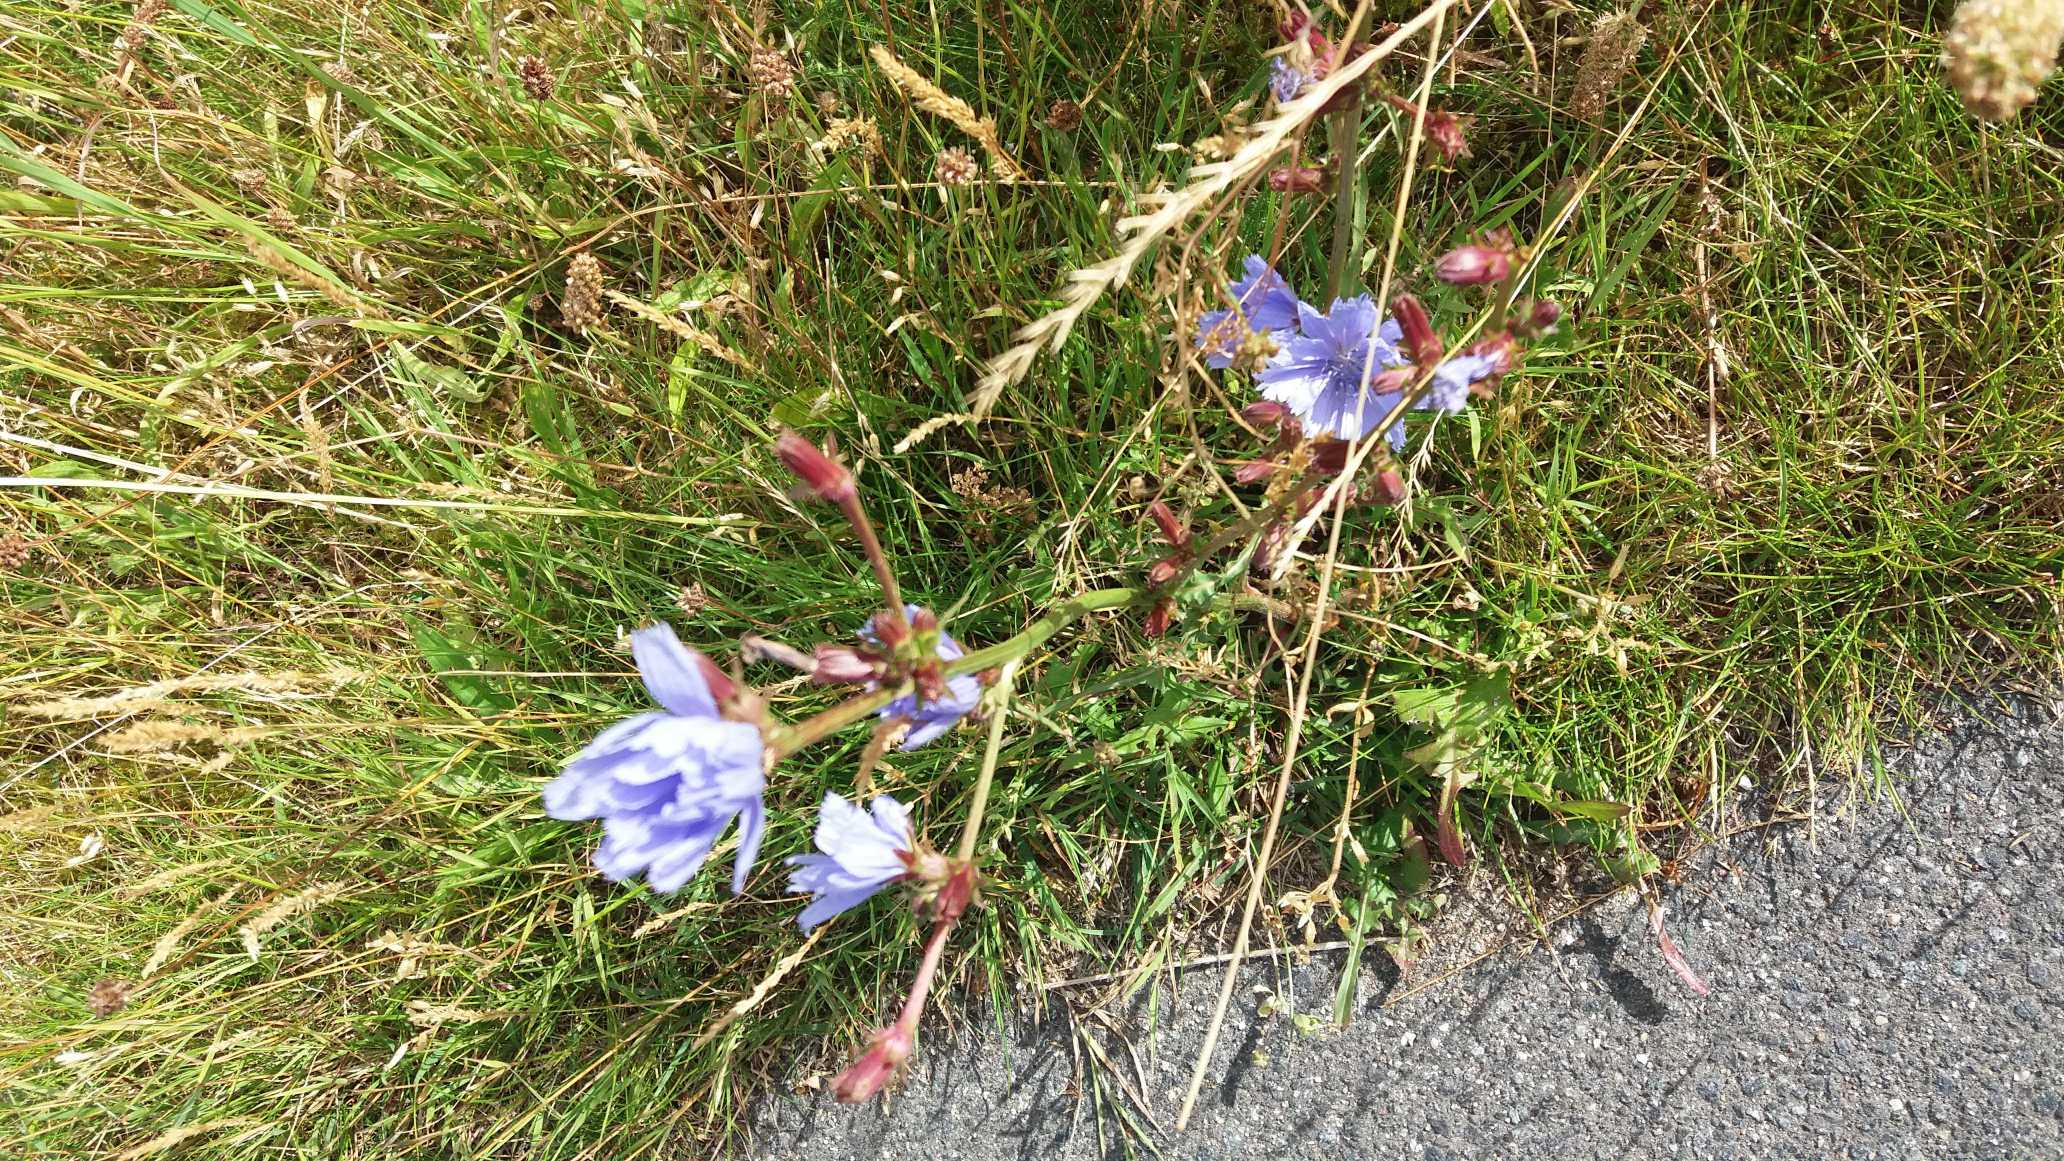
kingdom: Plantae
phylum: Tracheophyta
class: Magnoliopsida
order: Asterales
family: Asteraceae
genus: Cichorium
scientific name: Cichorium intybus
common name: Cikorie
